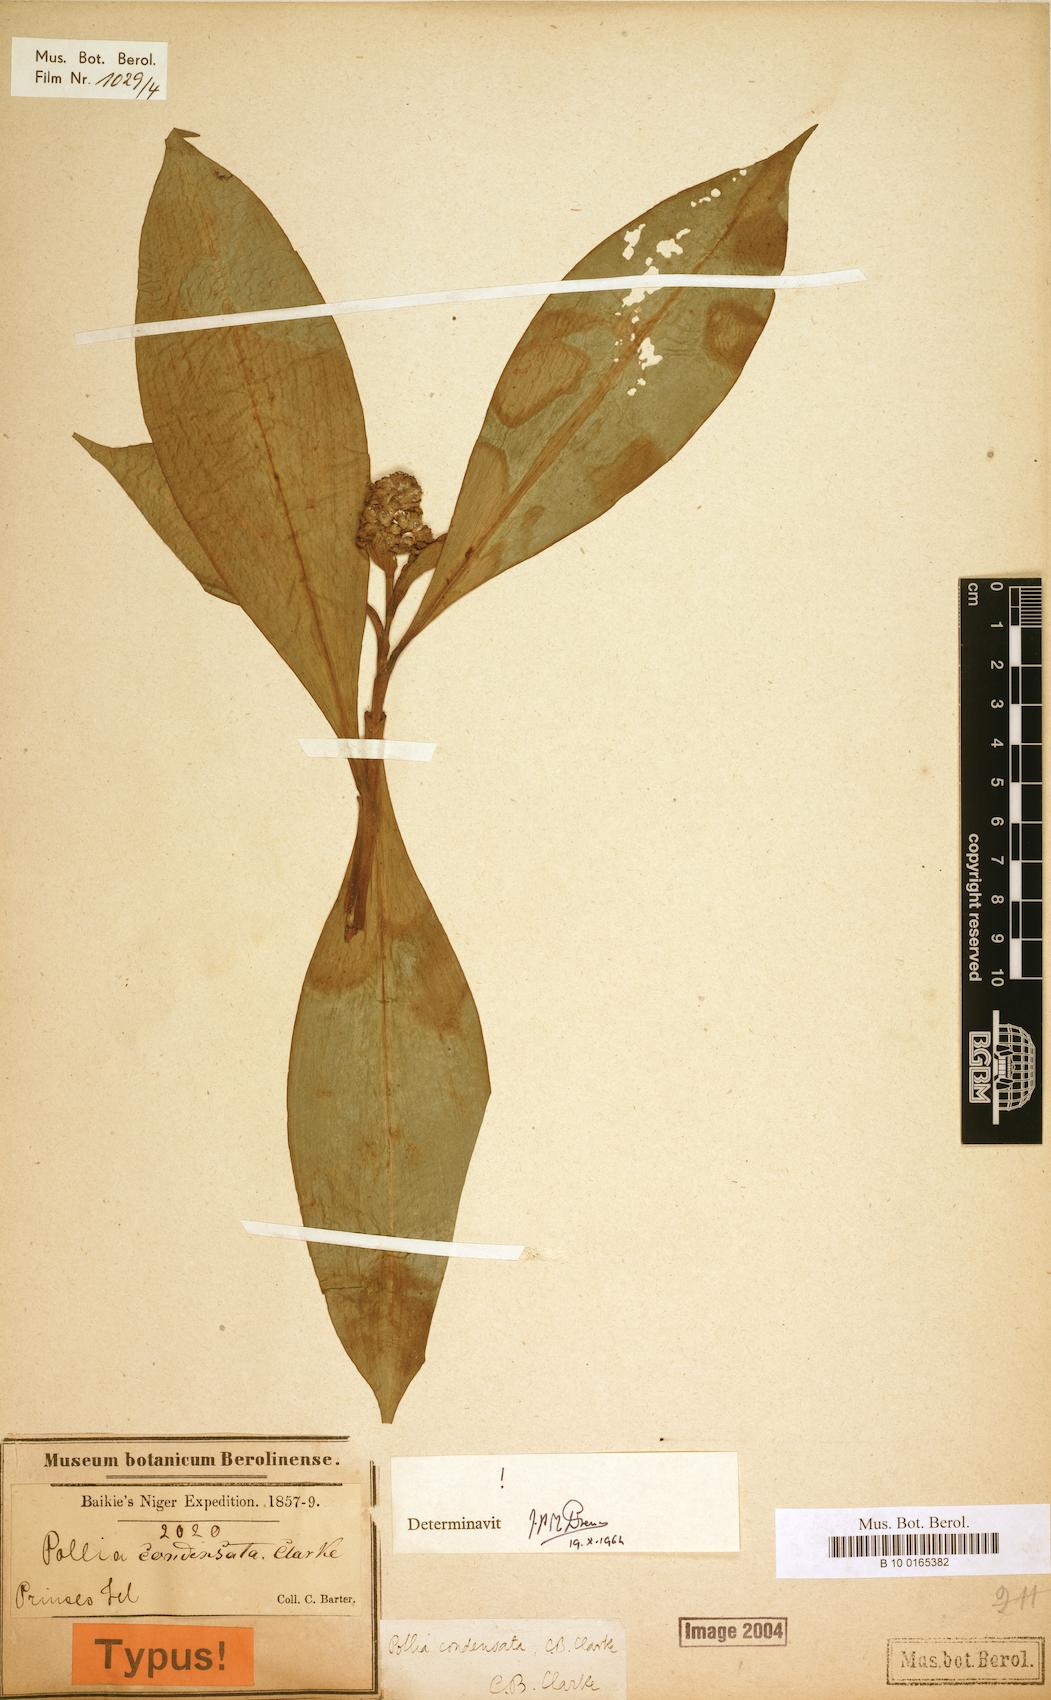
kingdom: Plantae
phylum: Tracheophyta
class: Liliopsida
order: Commelinales
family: Commelinaceae
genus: Pollia
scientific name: Pollia condensata
